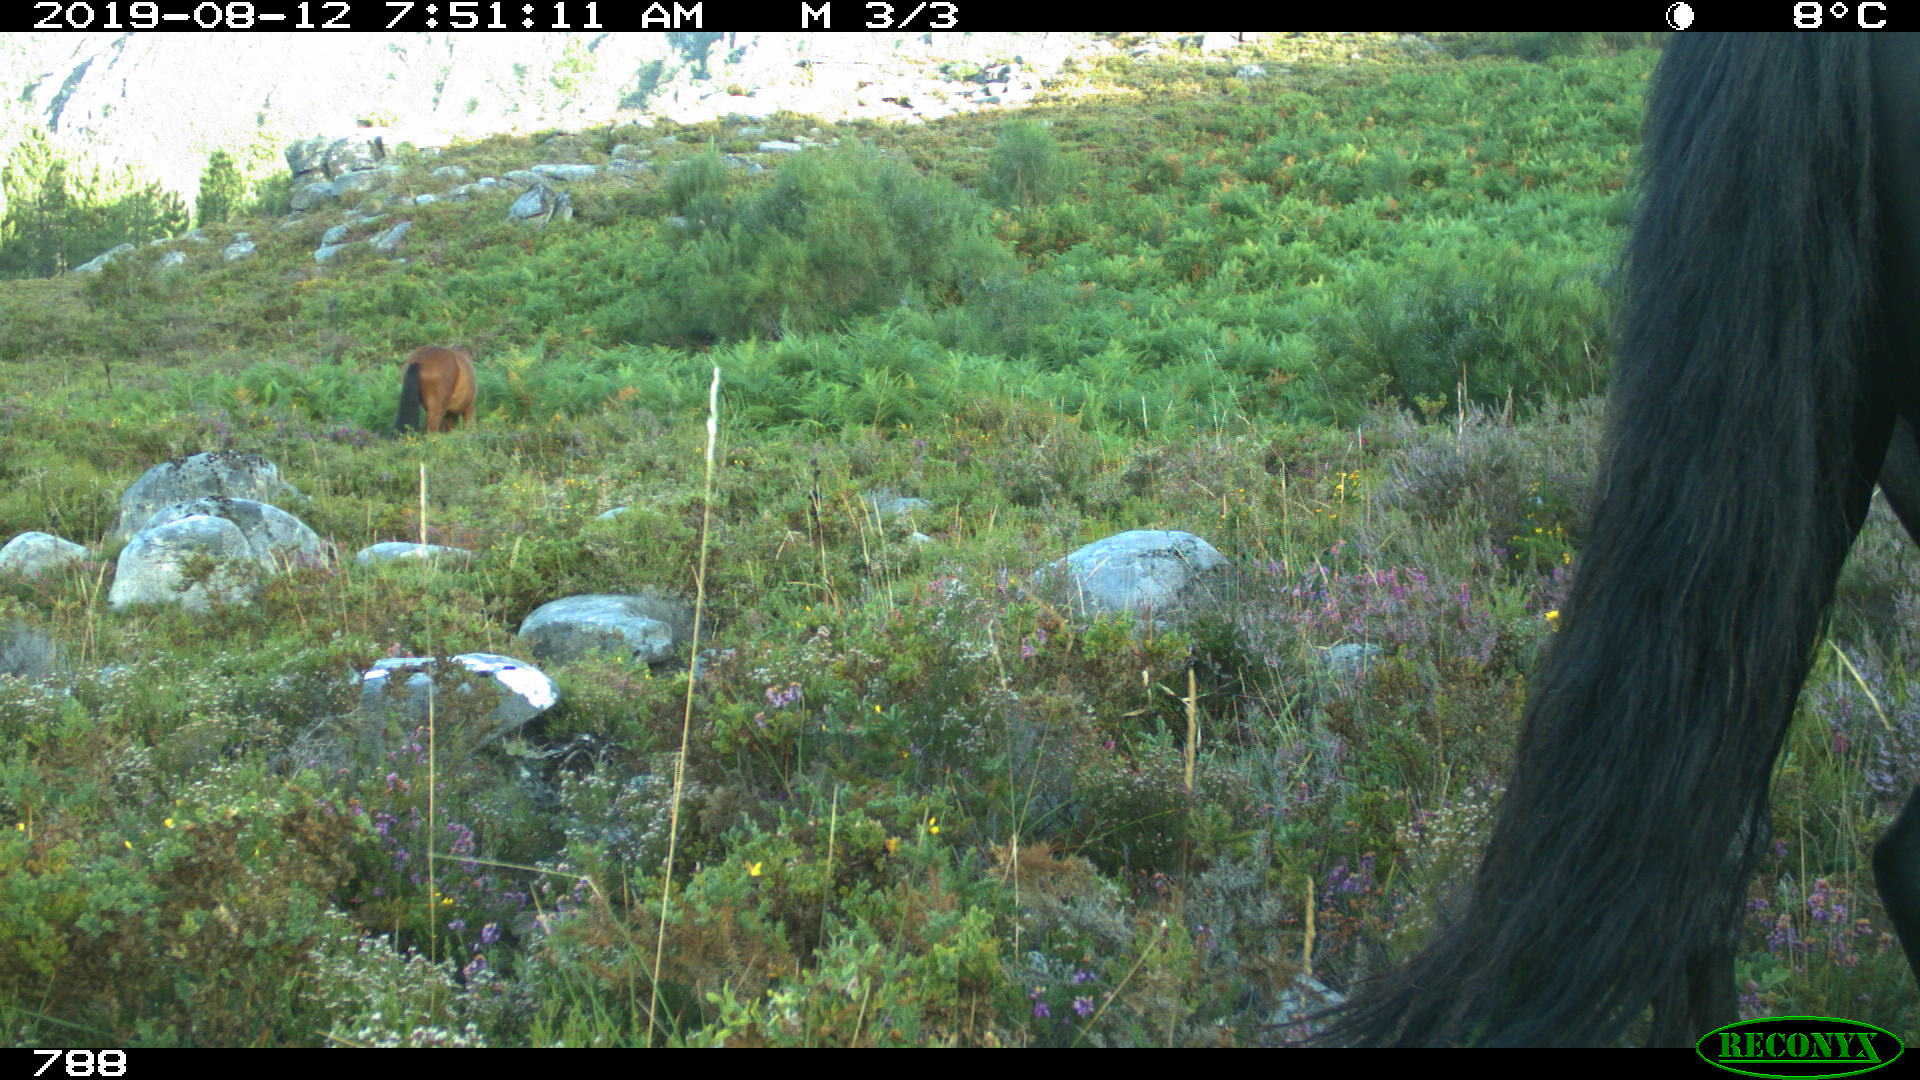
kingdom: Animalia
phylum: Chordata
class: Mammalia
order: Perissodactyla
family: Equidae
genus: Equus
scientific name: Equus caballus
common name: Horse
